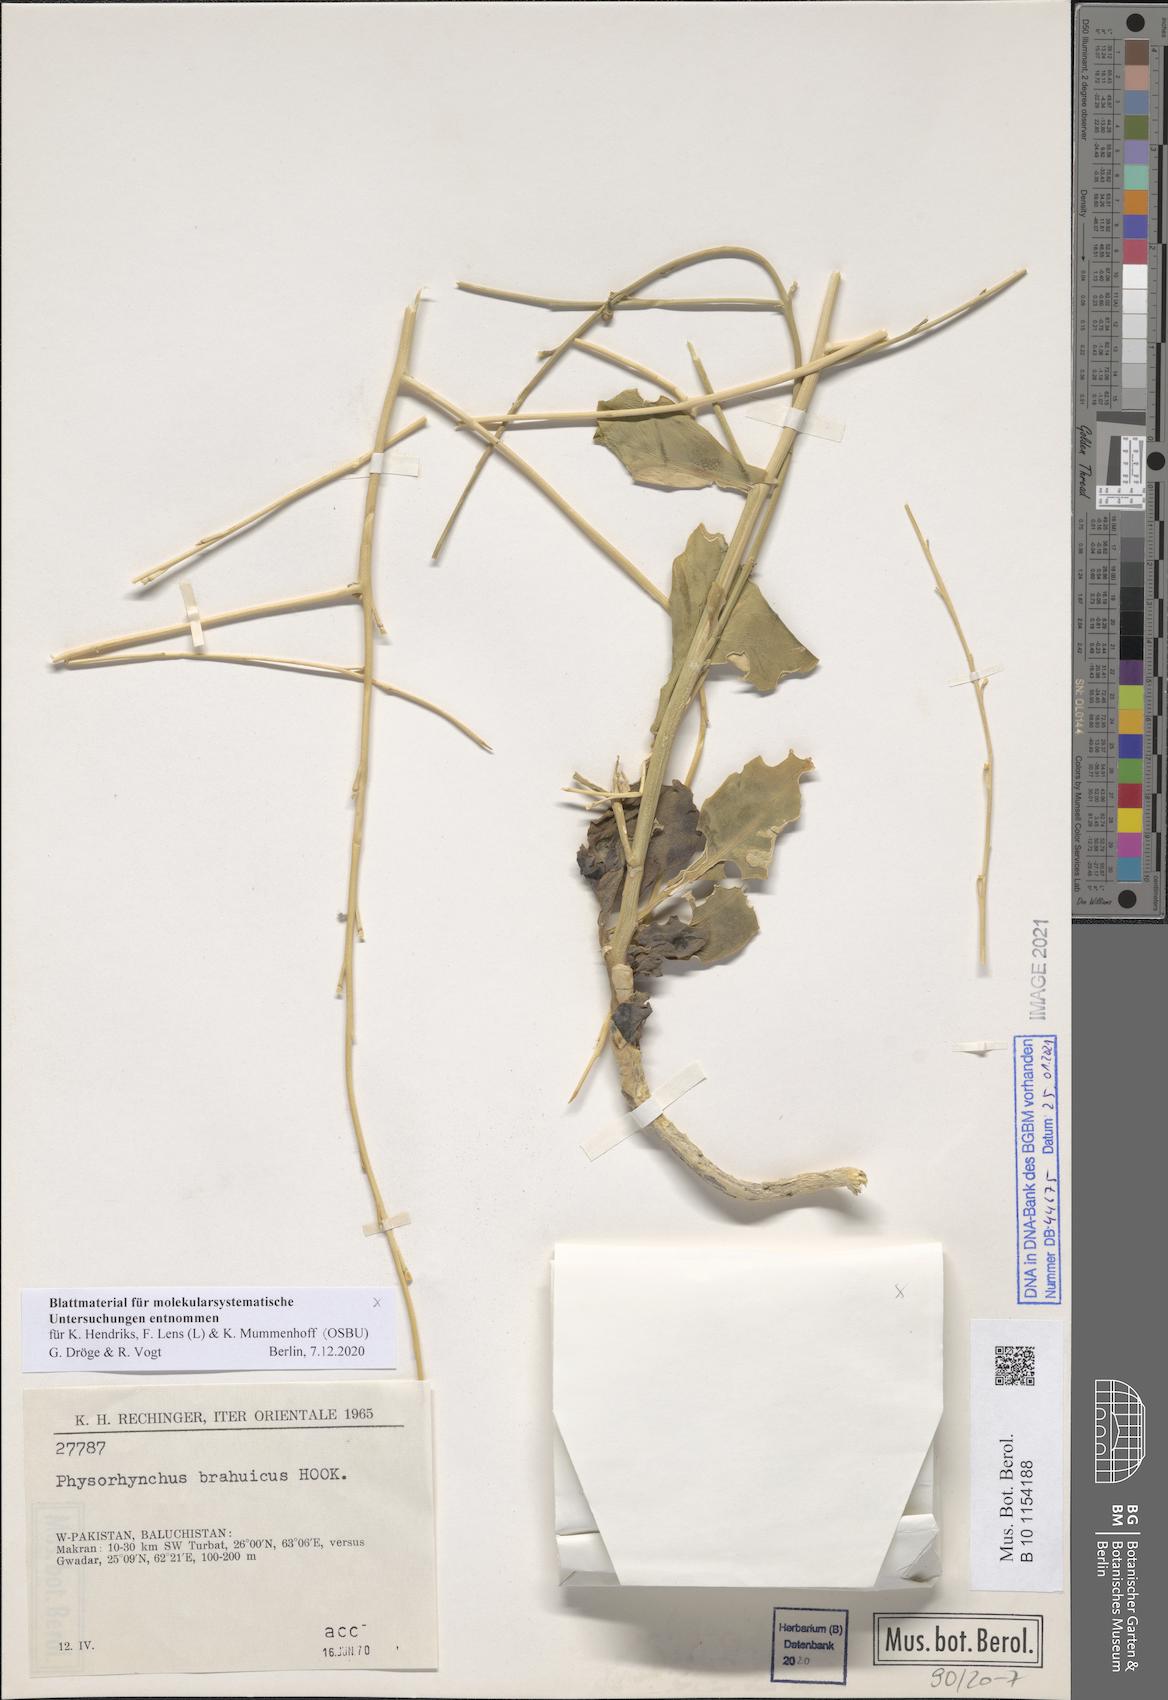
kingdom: Plantae
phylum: Tracheophyta
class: Magnoliopsida
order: Brassicales
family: Brassicaceae
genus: Physorhynchus
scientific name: Physorhynchus brahuicus
